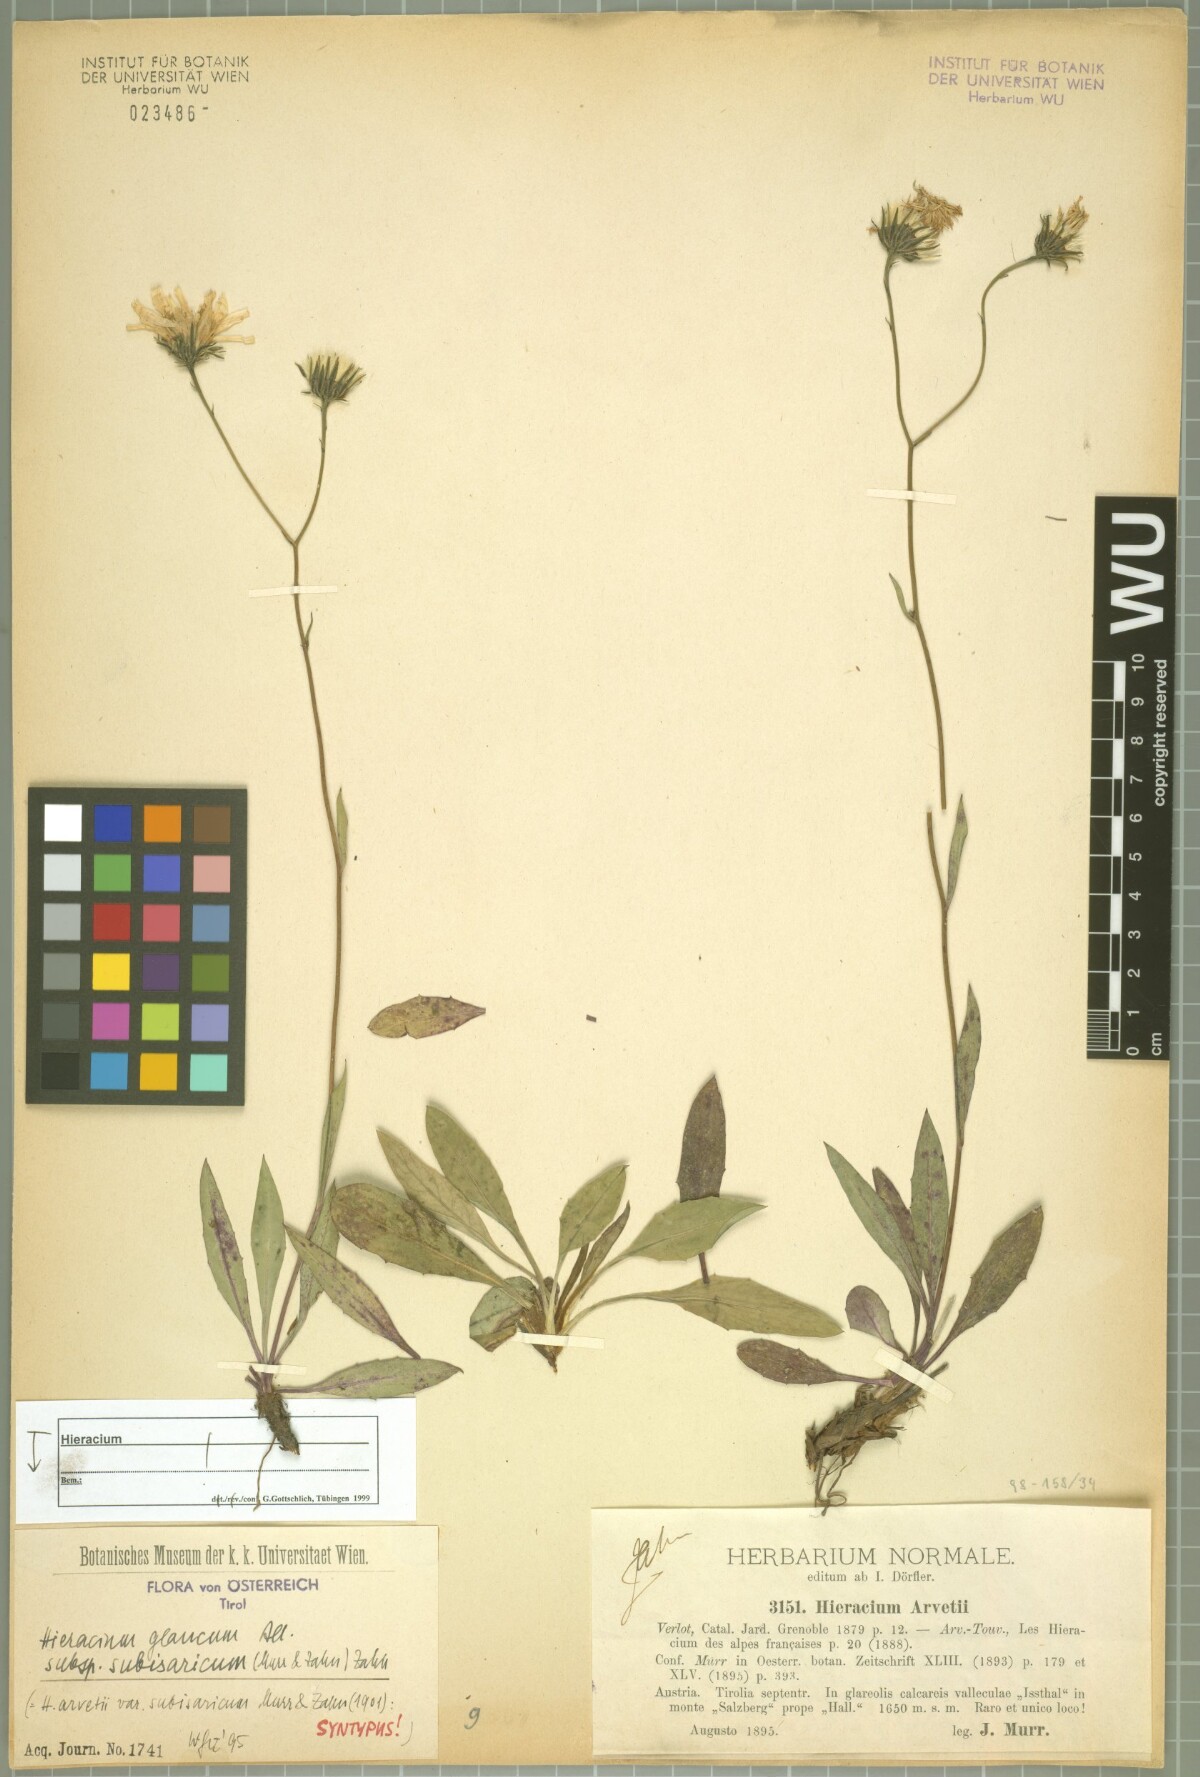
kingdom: Plantae
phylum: Tracheophyta
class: Magnoliopsida
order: Asterales
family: Asteraceae
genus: Hieracium
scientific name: Hieracium glaucum
